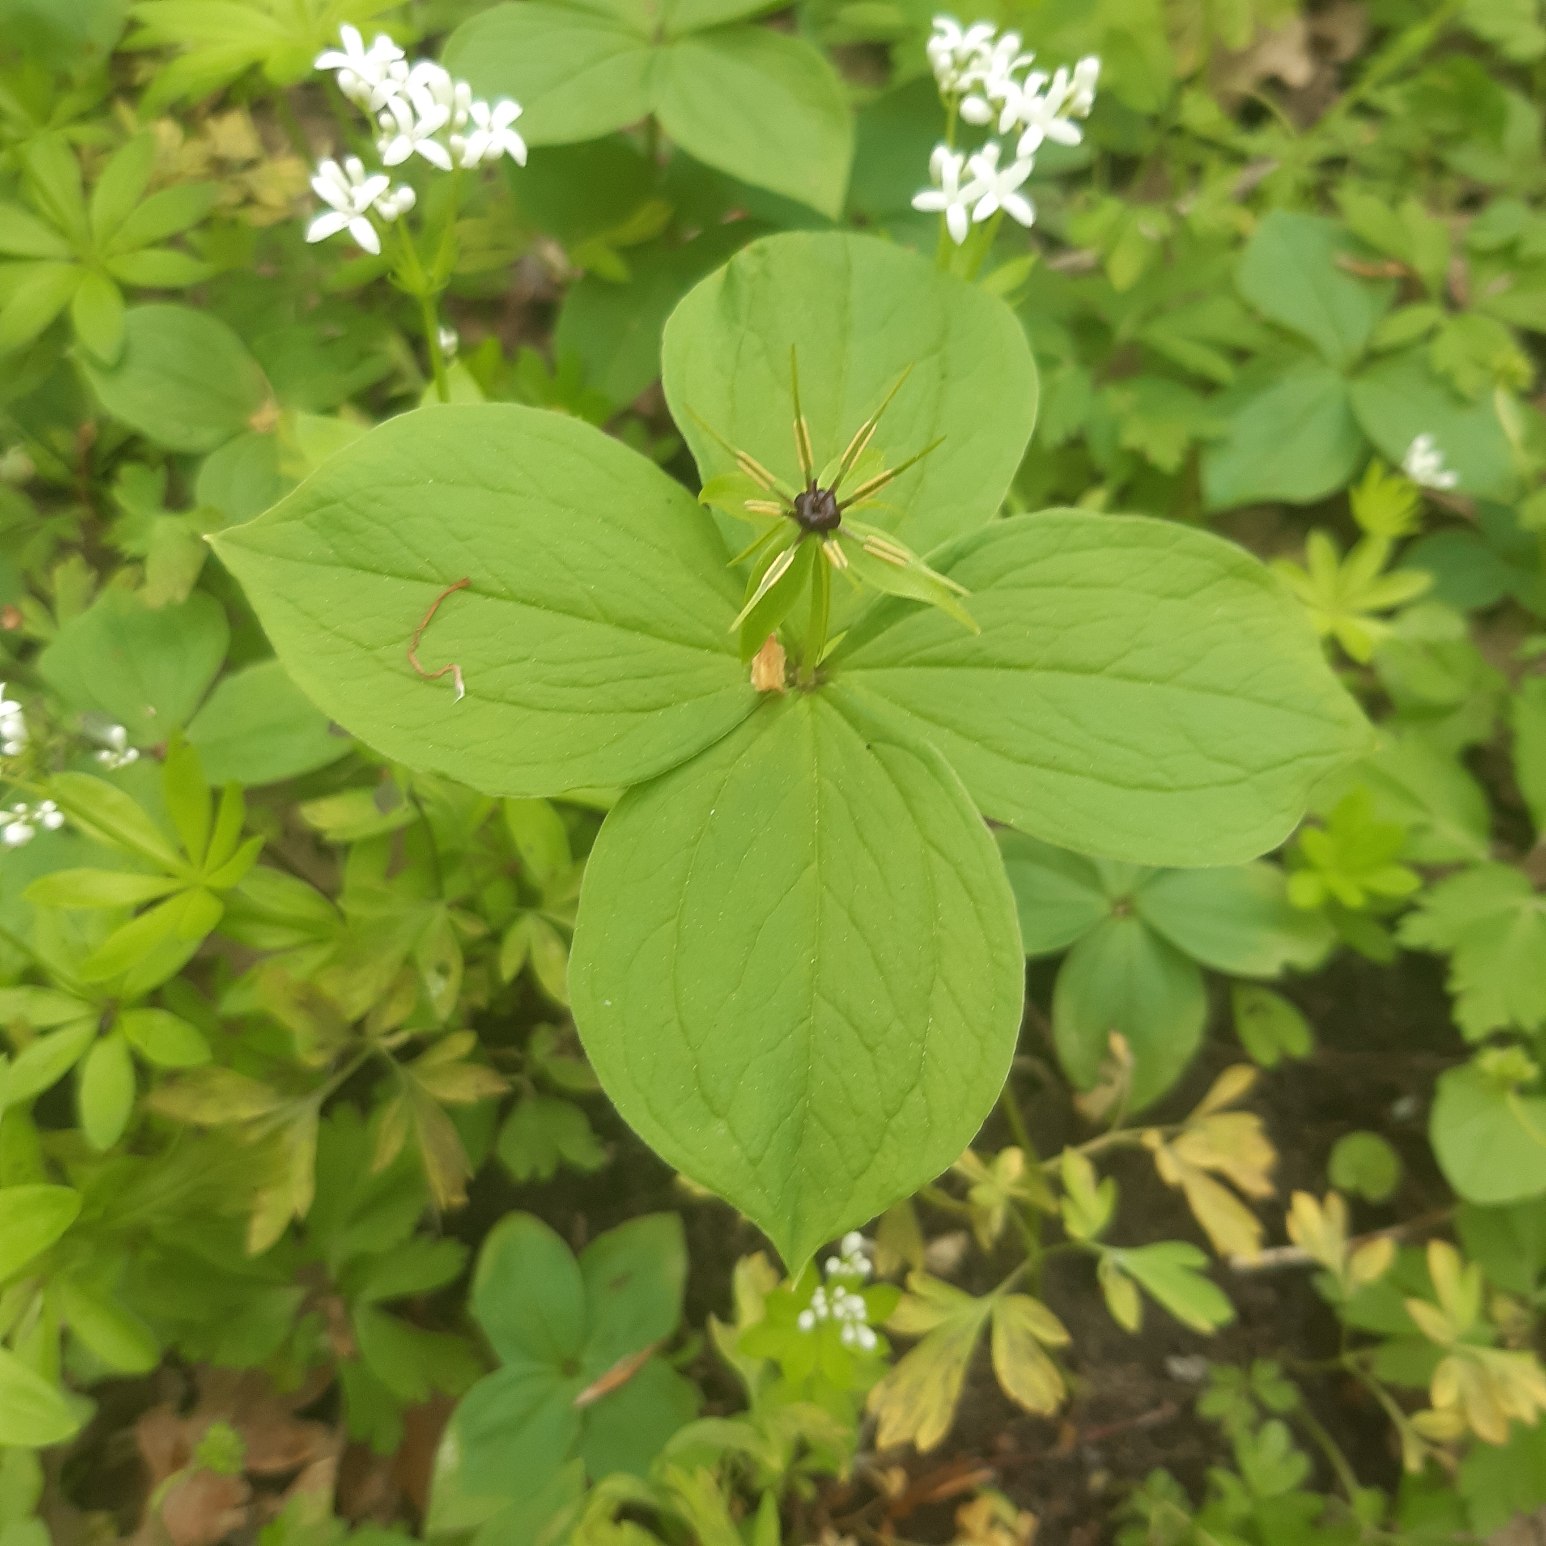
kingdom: Plantae
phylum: Tracheophyta
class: Liliopsida
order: Liliales
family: Melanthiaceae
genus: Paris
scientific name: Paris quadrifolia
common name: Firblad
